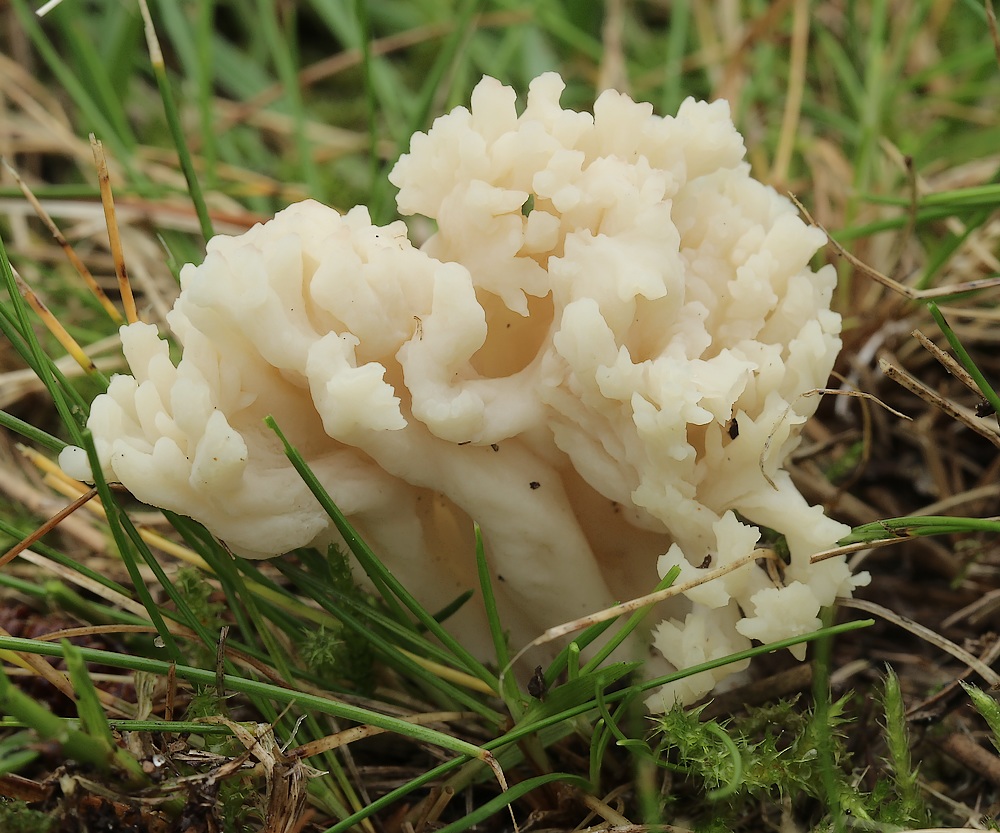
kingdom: Fungi
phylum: Basidiomycota
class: Agaricomycetes
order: Cantharellales
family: Hydnaceae
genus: Clavulina
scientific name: Clavulina rugosa
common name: rynket troldkølle
